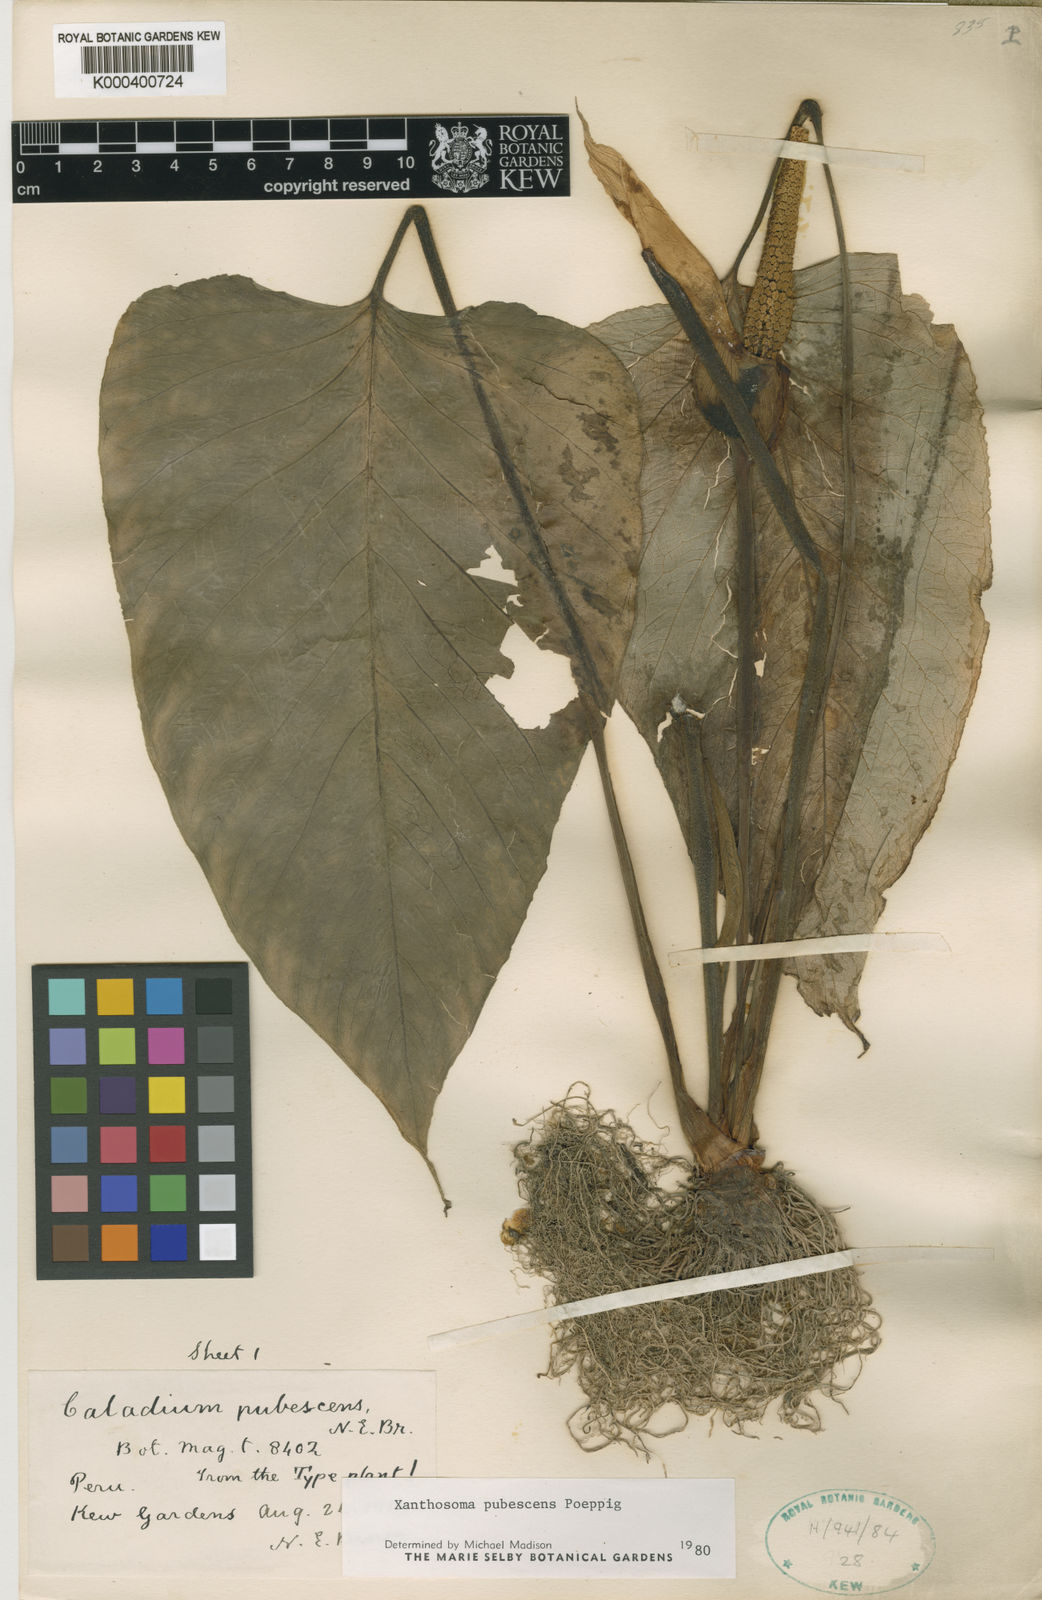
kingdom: Plantae
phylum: Tracheophyta
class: Liliopsida
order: Alismatales
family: Araceae
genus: Xanthosoma
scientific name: Xanthosoma pubescens
